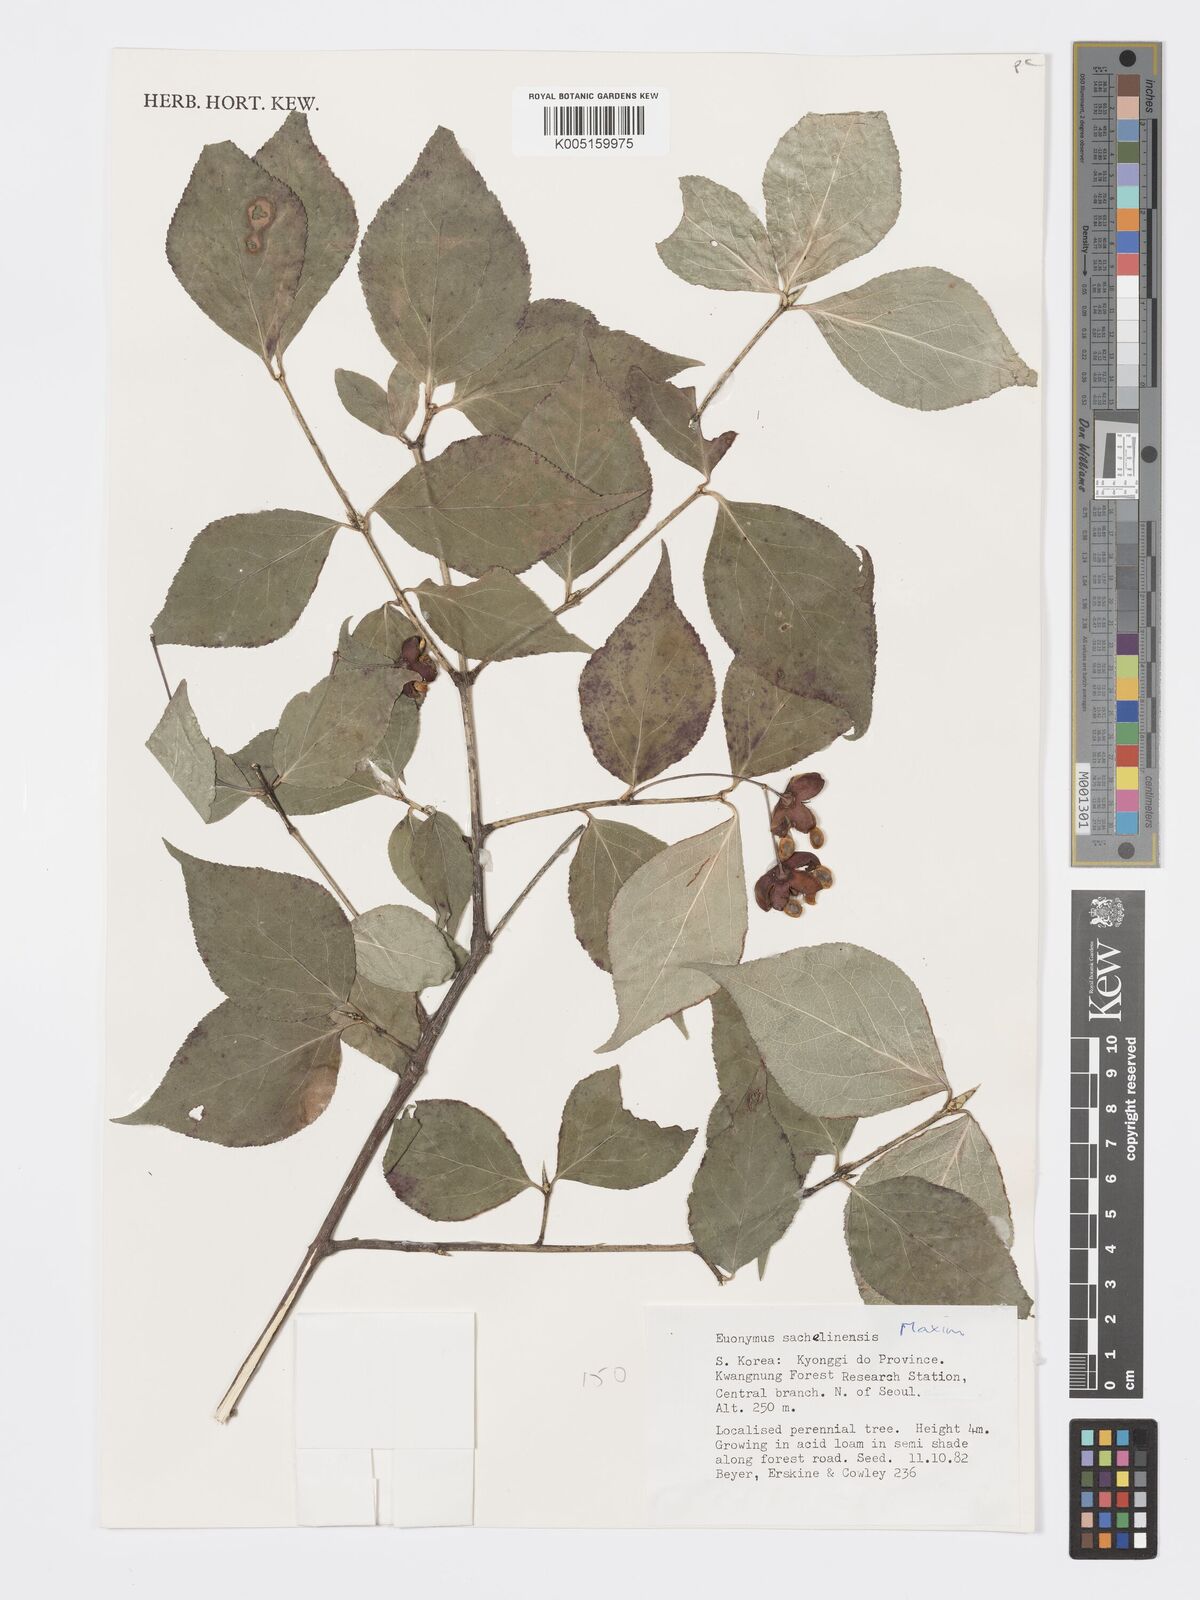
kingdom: Plantae
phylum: Tracheophyta
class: Magnoliopsida
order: Celastrales
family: Celastraceae
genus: Euonymus
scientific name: Euonymus sachalinensis
